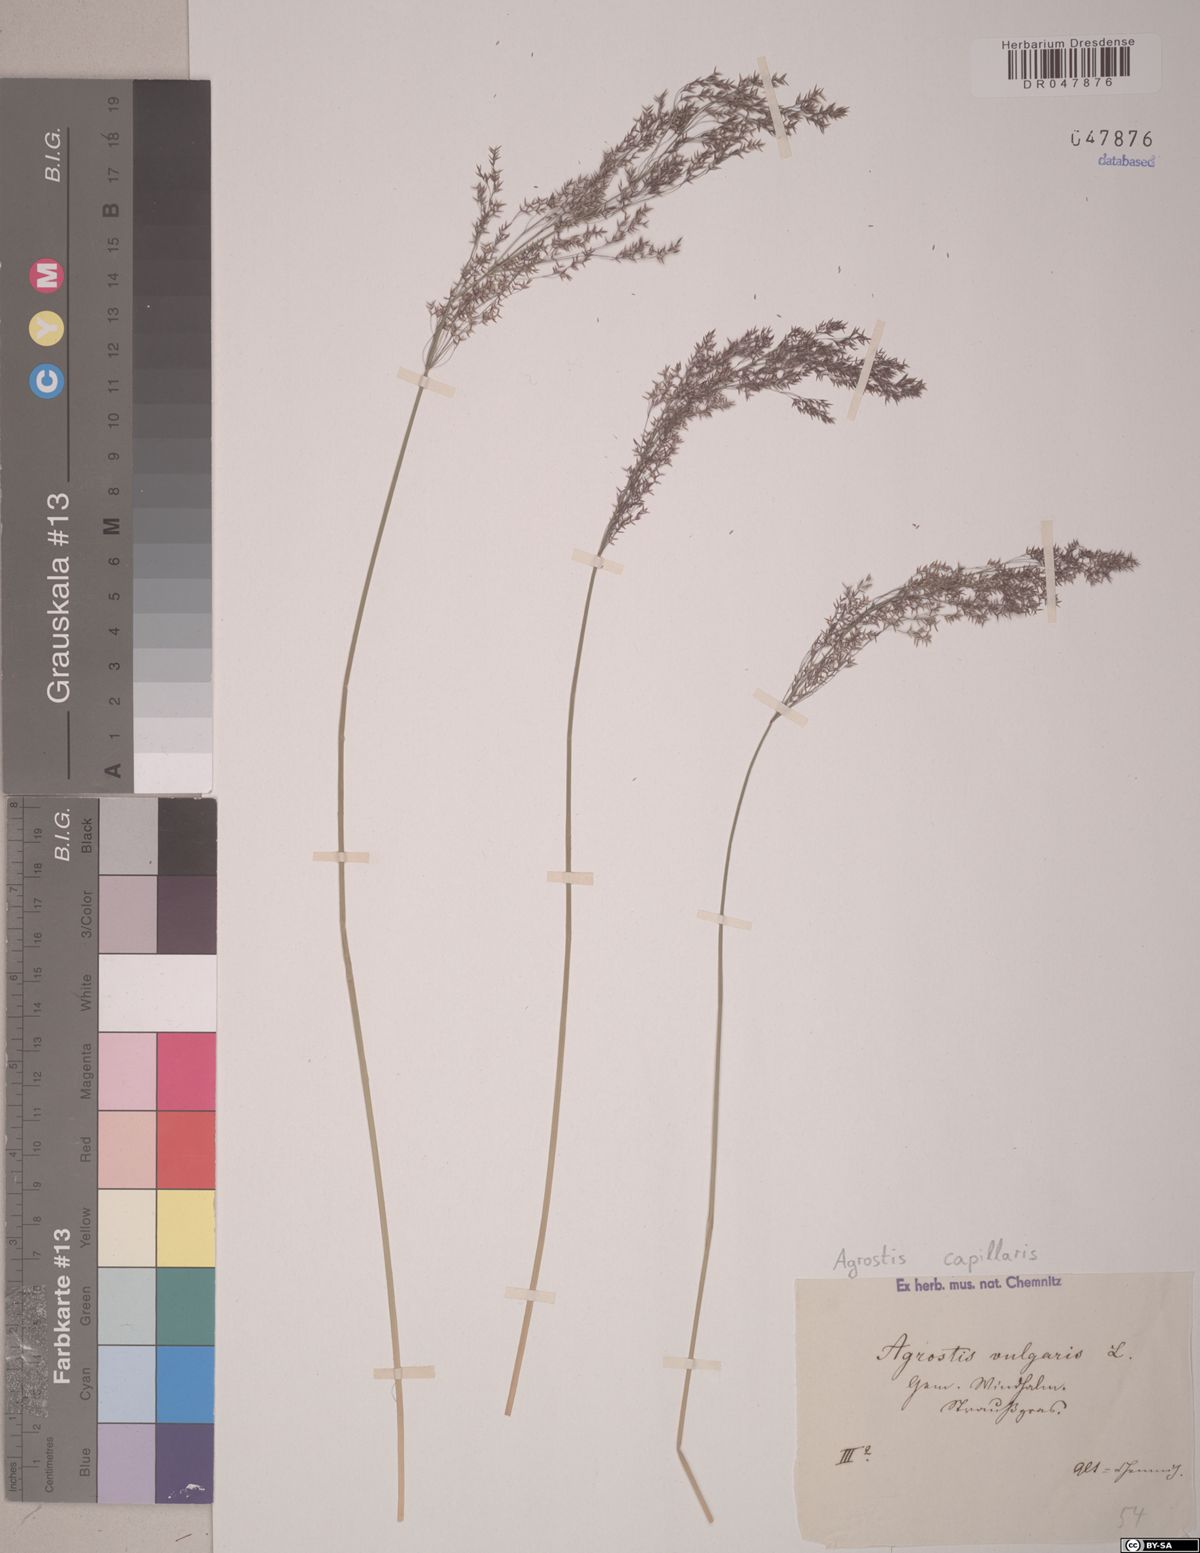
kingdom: Plantae
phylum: Tracheophyta
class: Liliopsida
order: Poales
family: Poaceae
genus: Agrostis
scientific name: Agrostis capillaris
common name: Colonial bentgrass
